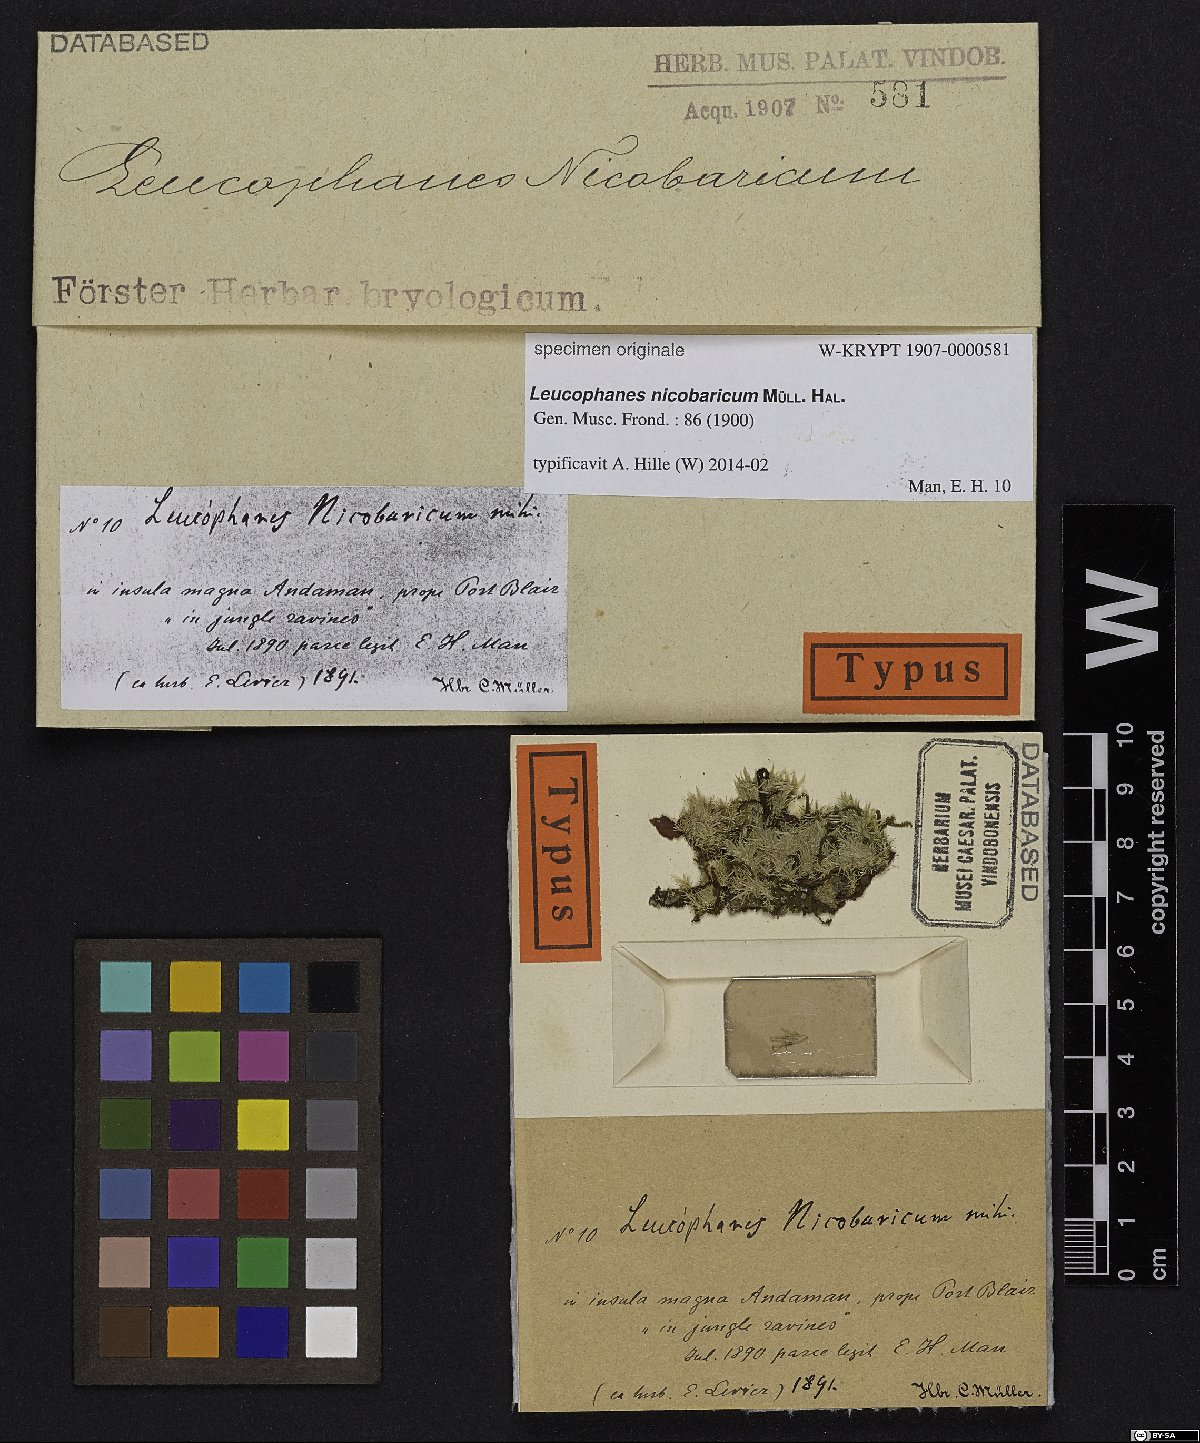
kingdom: Plantae
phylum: Bryophyta
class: Bryopsida
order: Dicranales
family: Calymperaceae
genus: Leucophanes
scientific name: Leucophanes octoblepharioides
